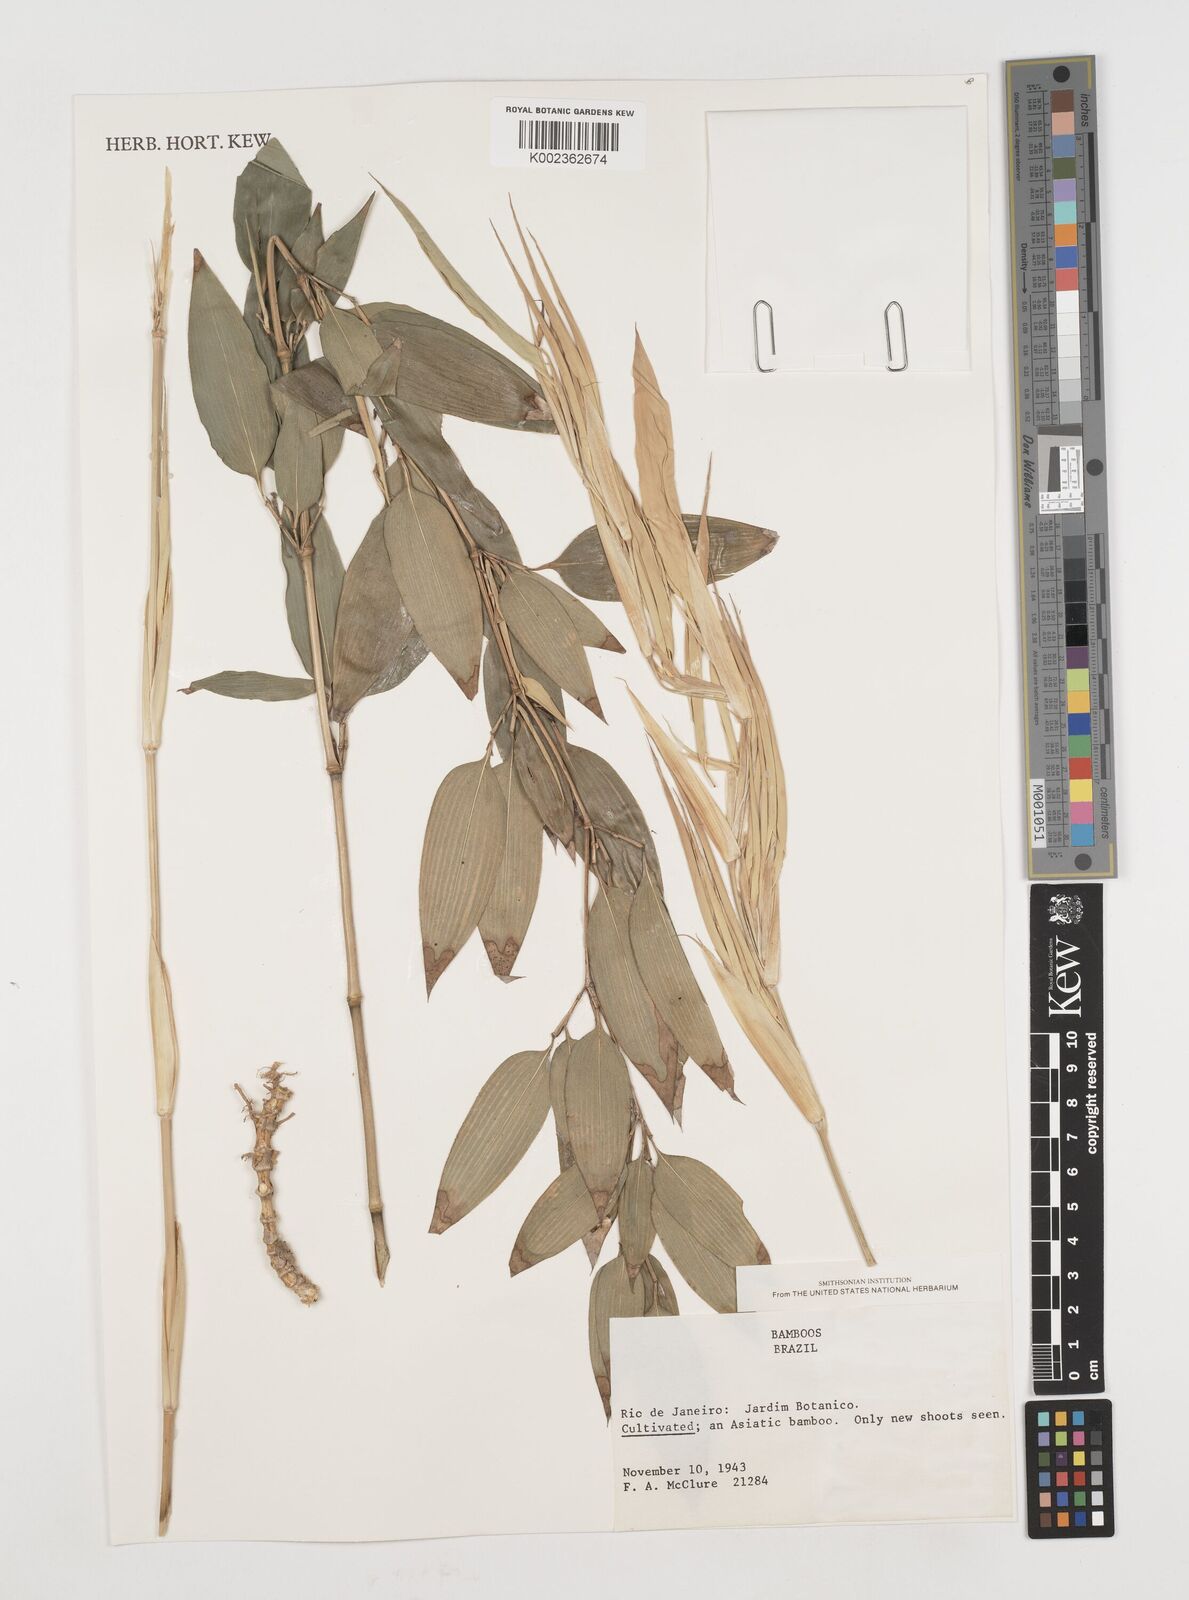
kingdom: Plantae
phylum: Tracheophyta
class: Liliopsida
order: Poales
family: Poaceae
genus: Shibataea
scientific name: Shibataea kumasasa
